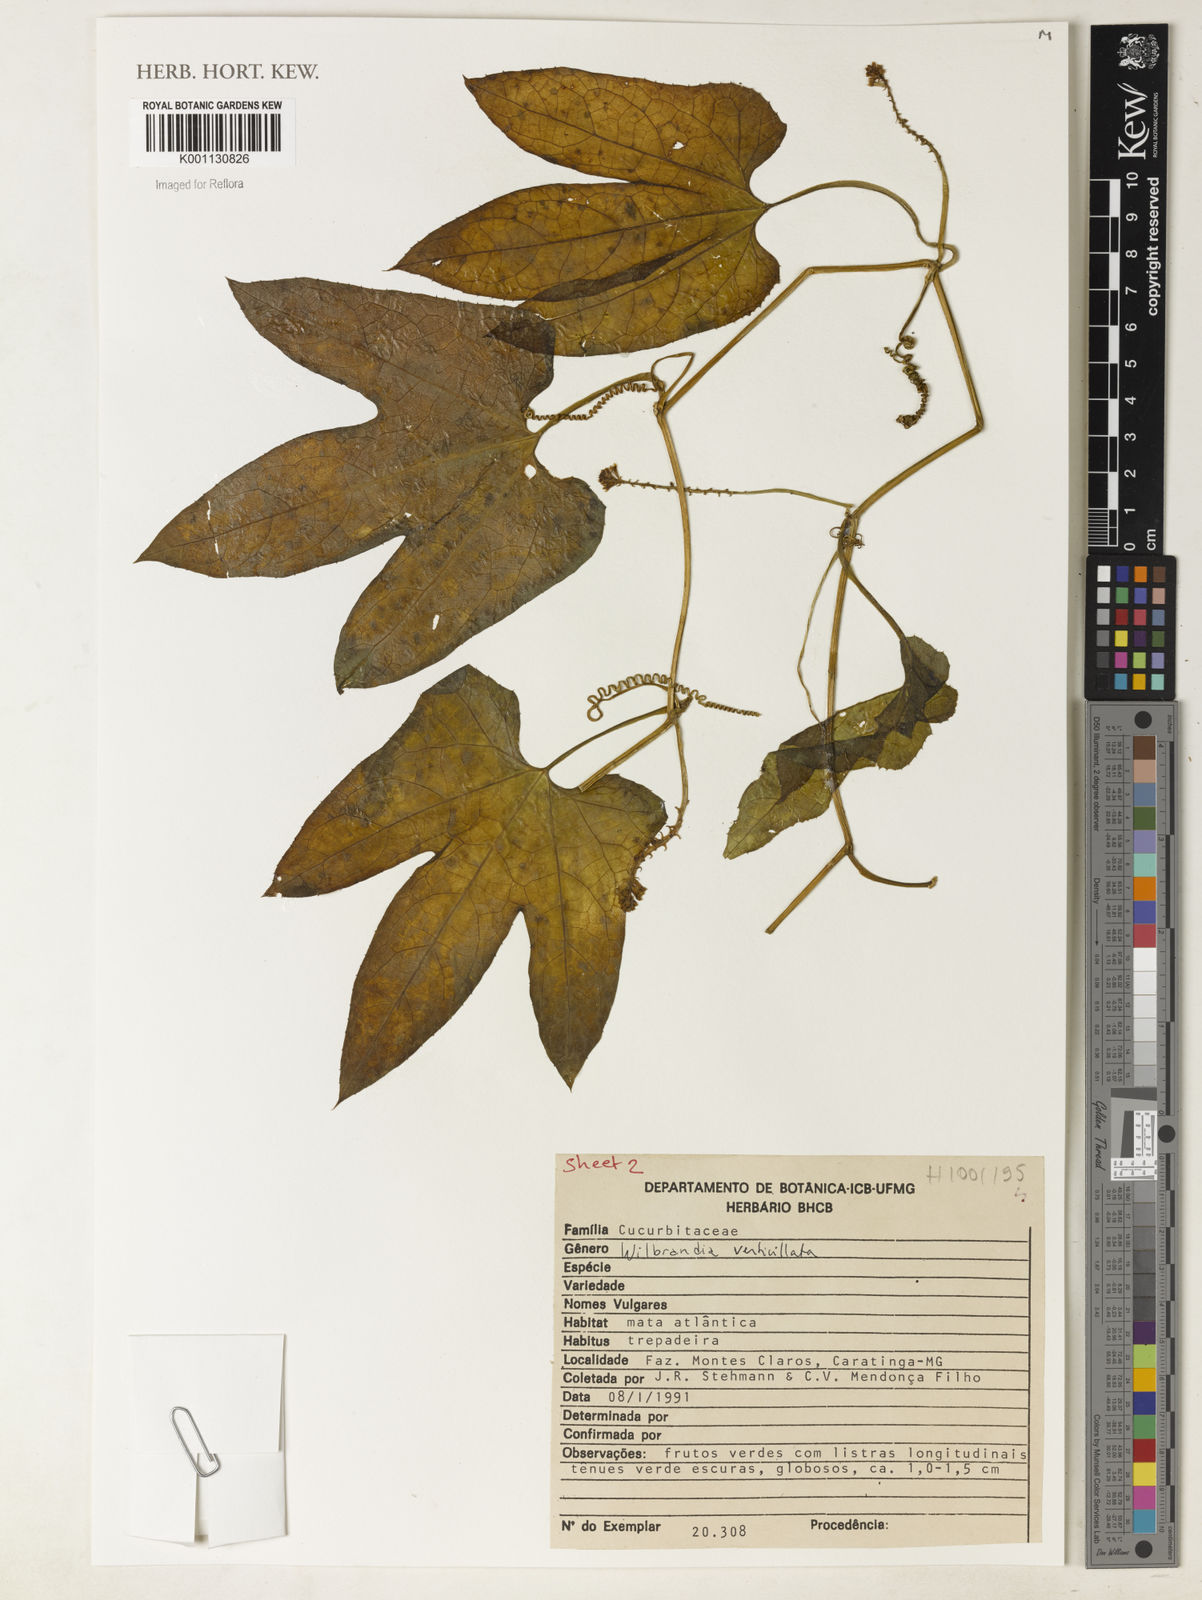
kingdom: Plantae
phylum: Tracheophyta
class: Magnoliopsida
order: Cucurbitales
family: Cucurbitaceae
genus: Wilbrandia
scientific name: Wilbrandia verticillata
